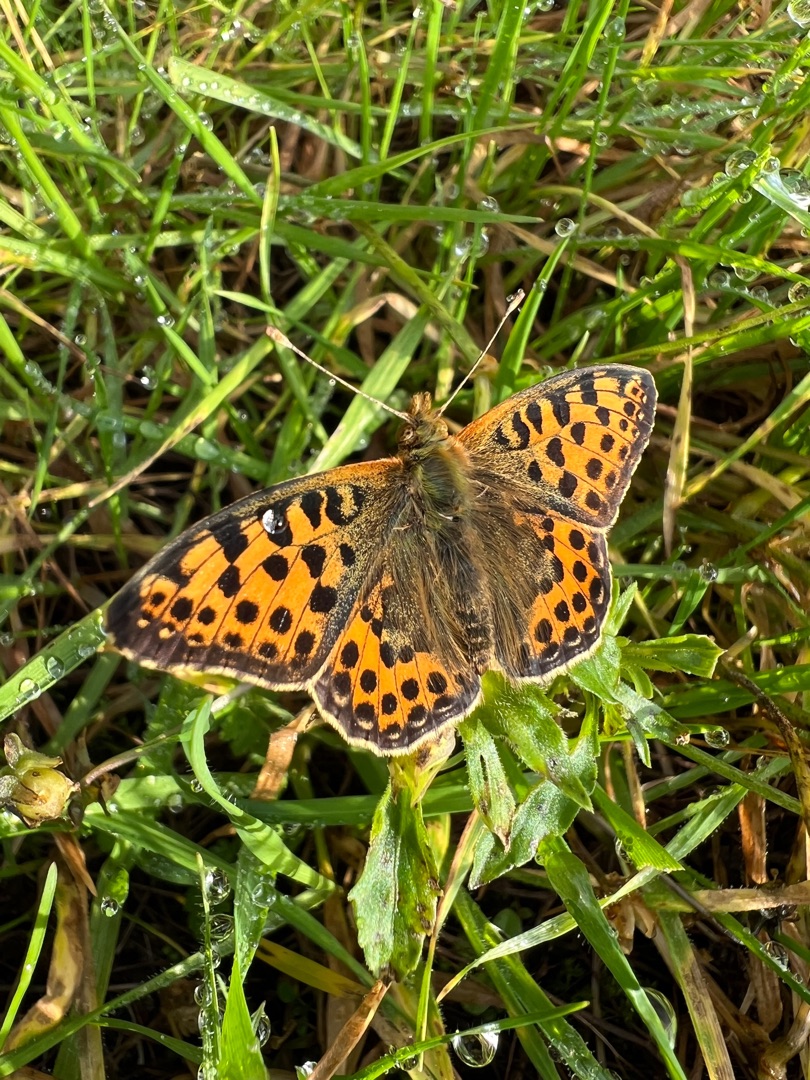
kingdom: Animalia
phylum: Arthropoda
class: Insecta
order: Lepidoptera
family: Nymphalidae
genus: Issoria
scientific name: Issoria lathonia
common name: Storplettet perlemorsommerfugl
